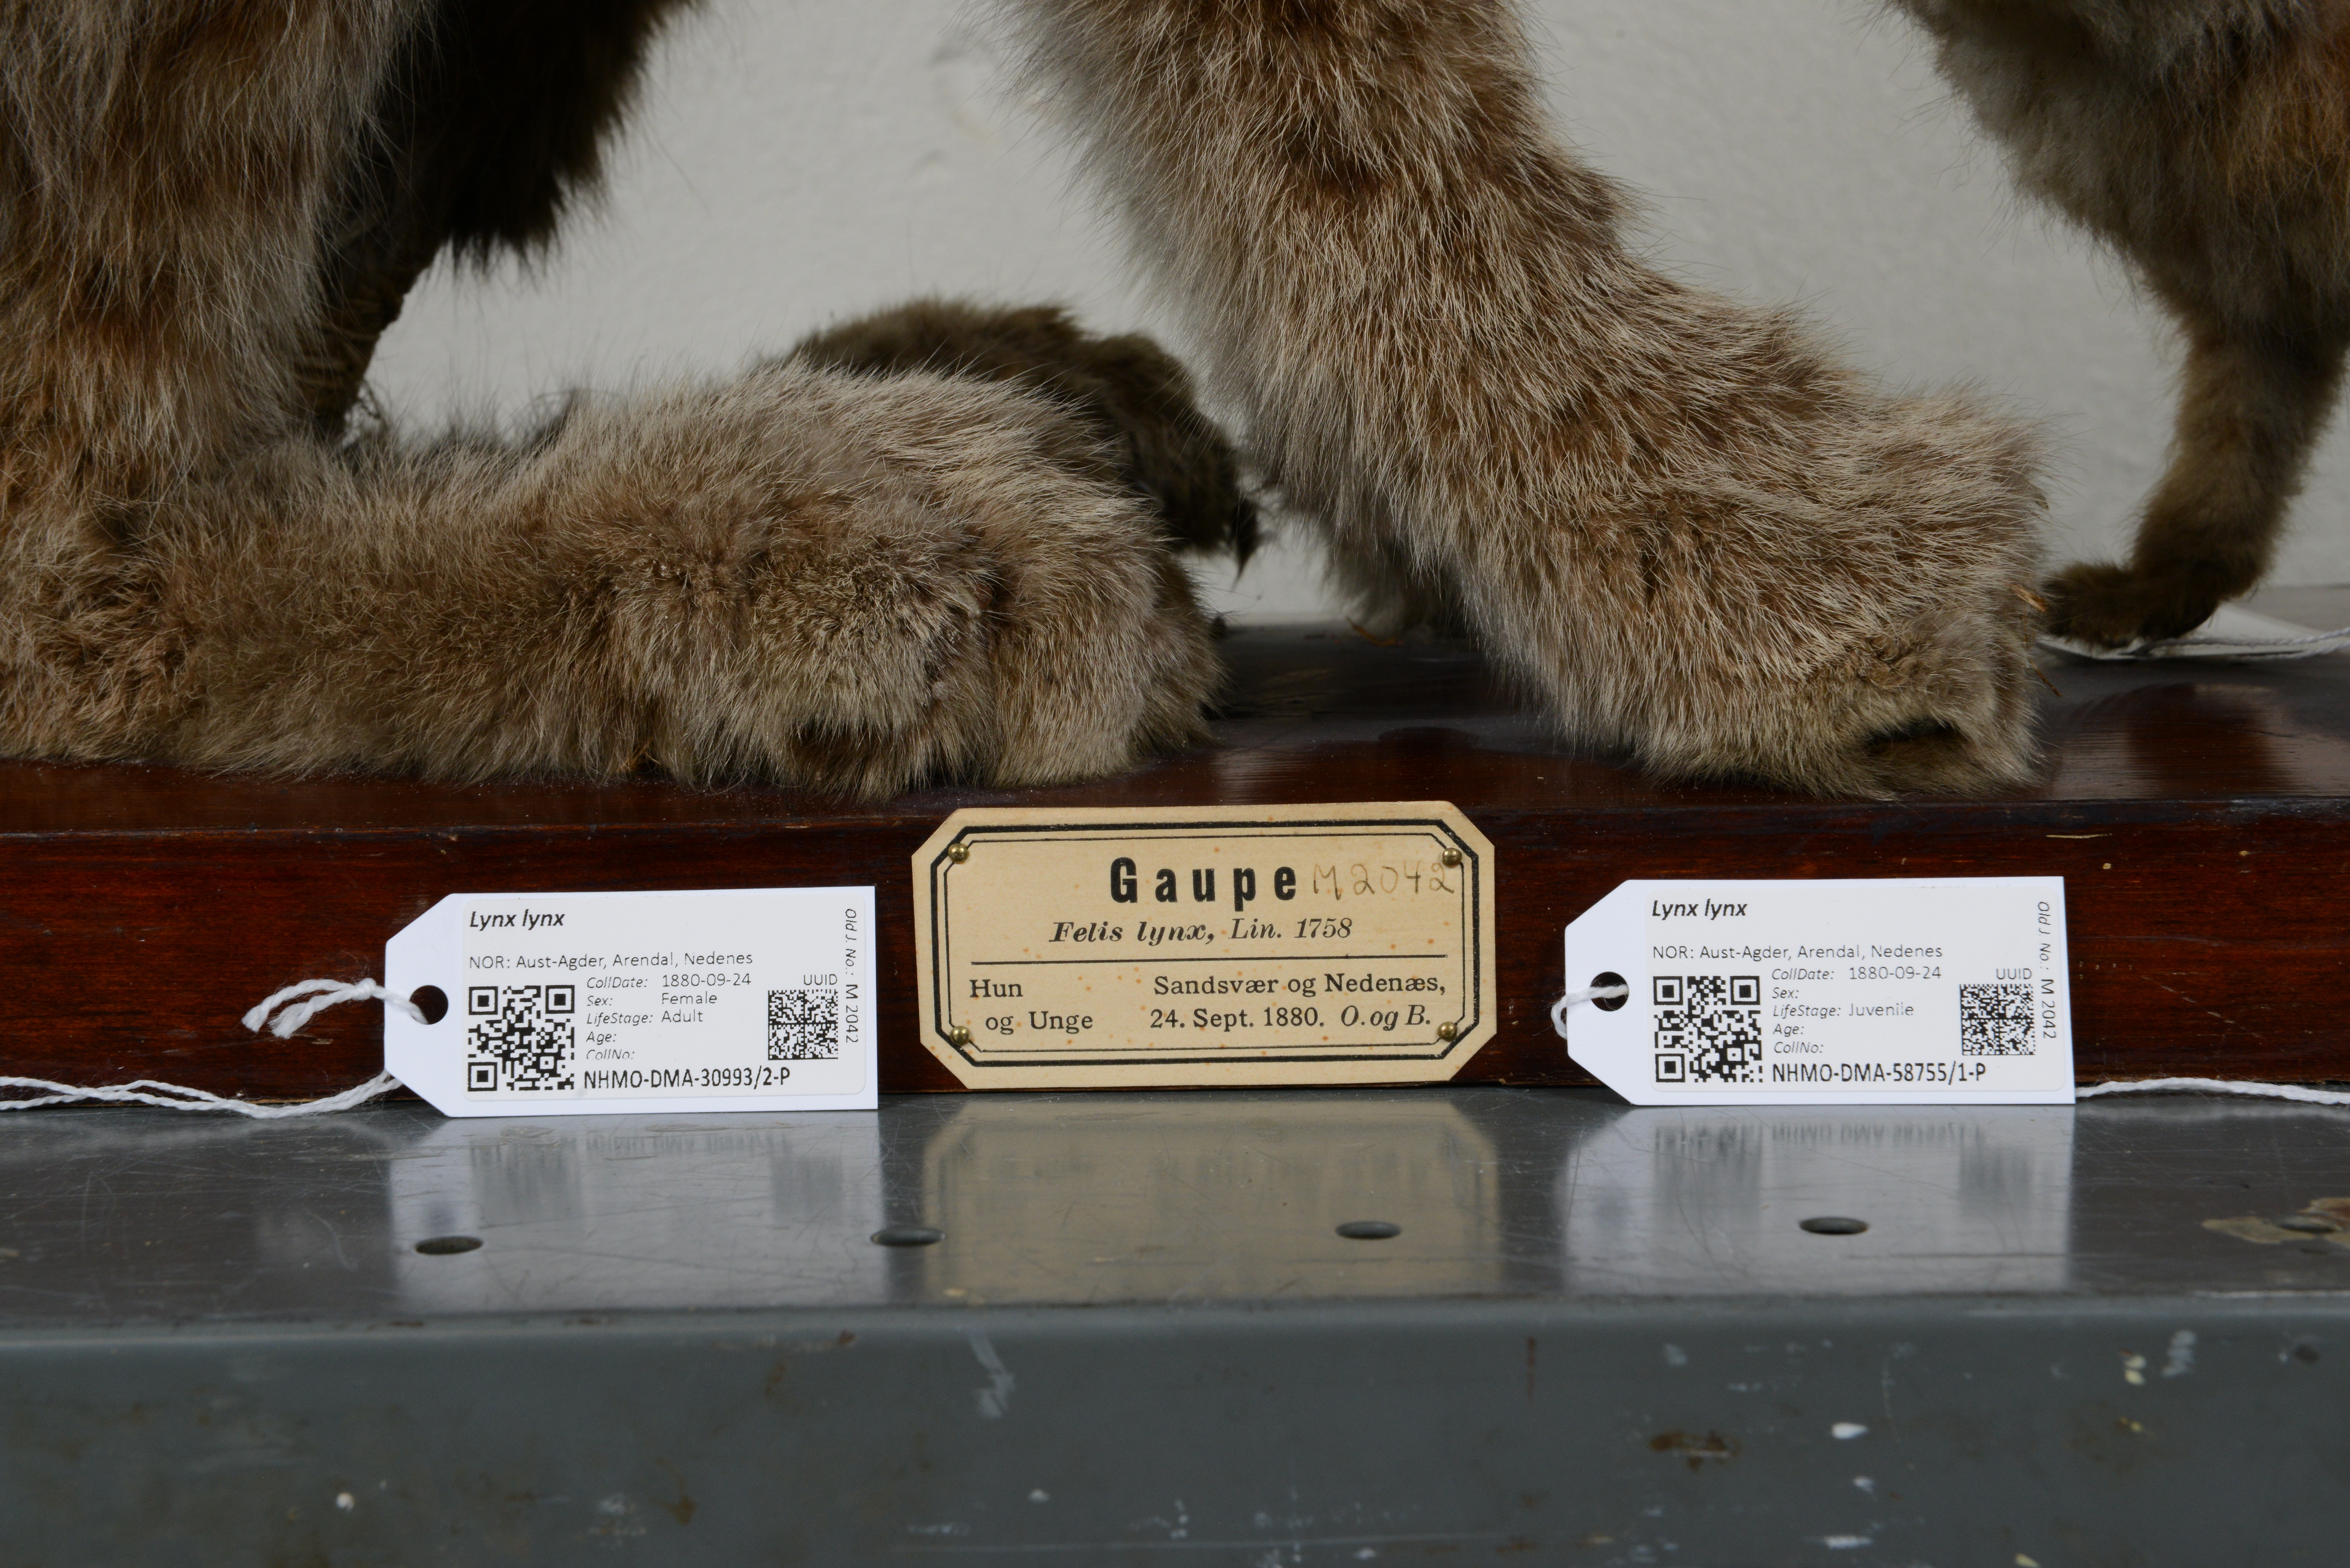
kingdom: Animalia
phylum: Chordata
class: Mammalia
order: Carnivora
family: Felidae
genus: Lynx
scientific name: Lynx lynx
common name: Eurasian lynx
